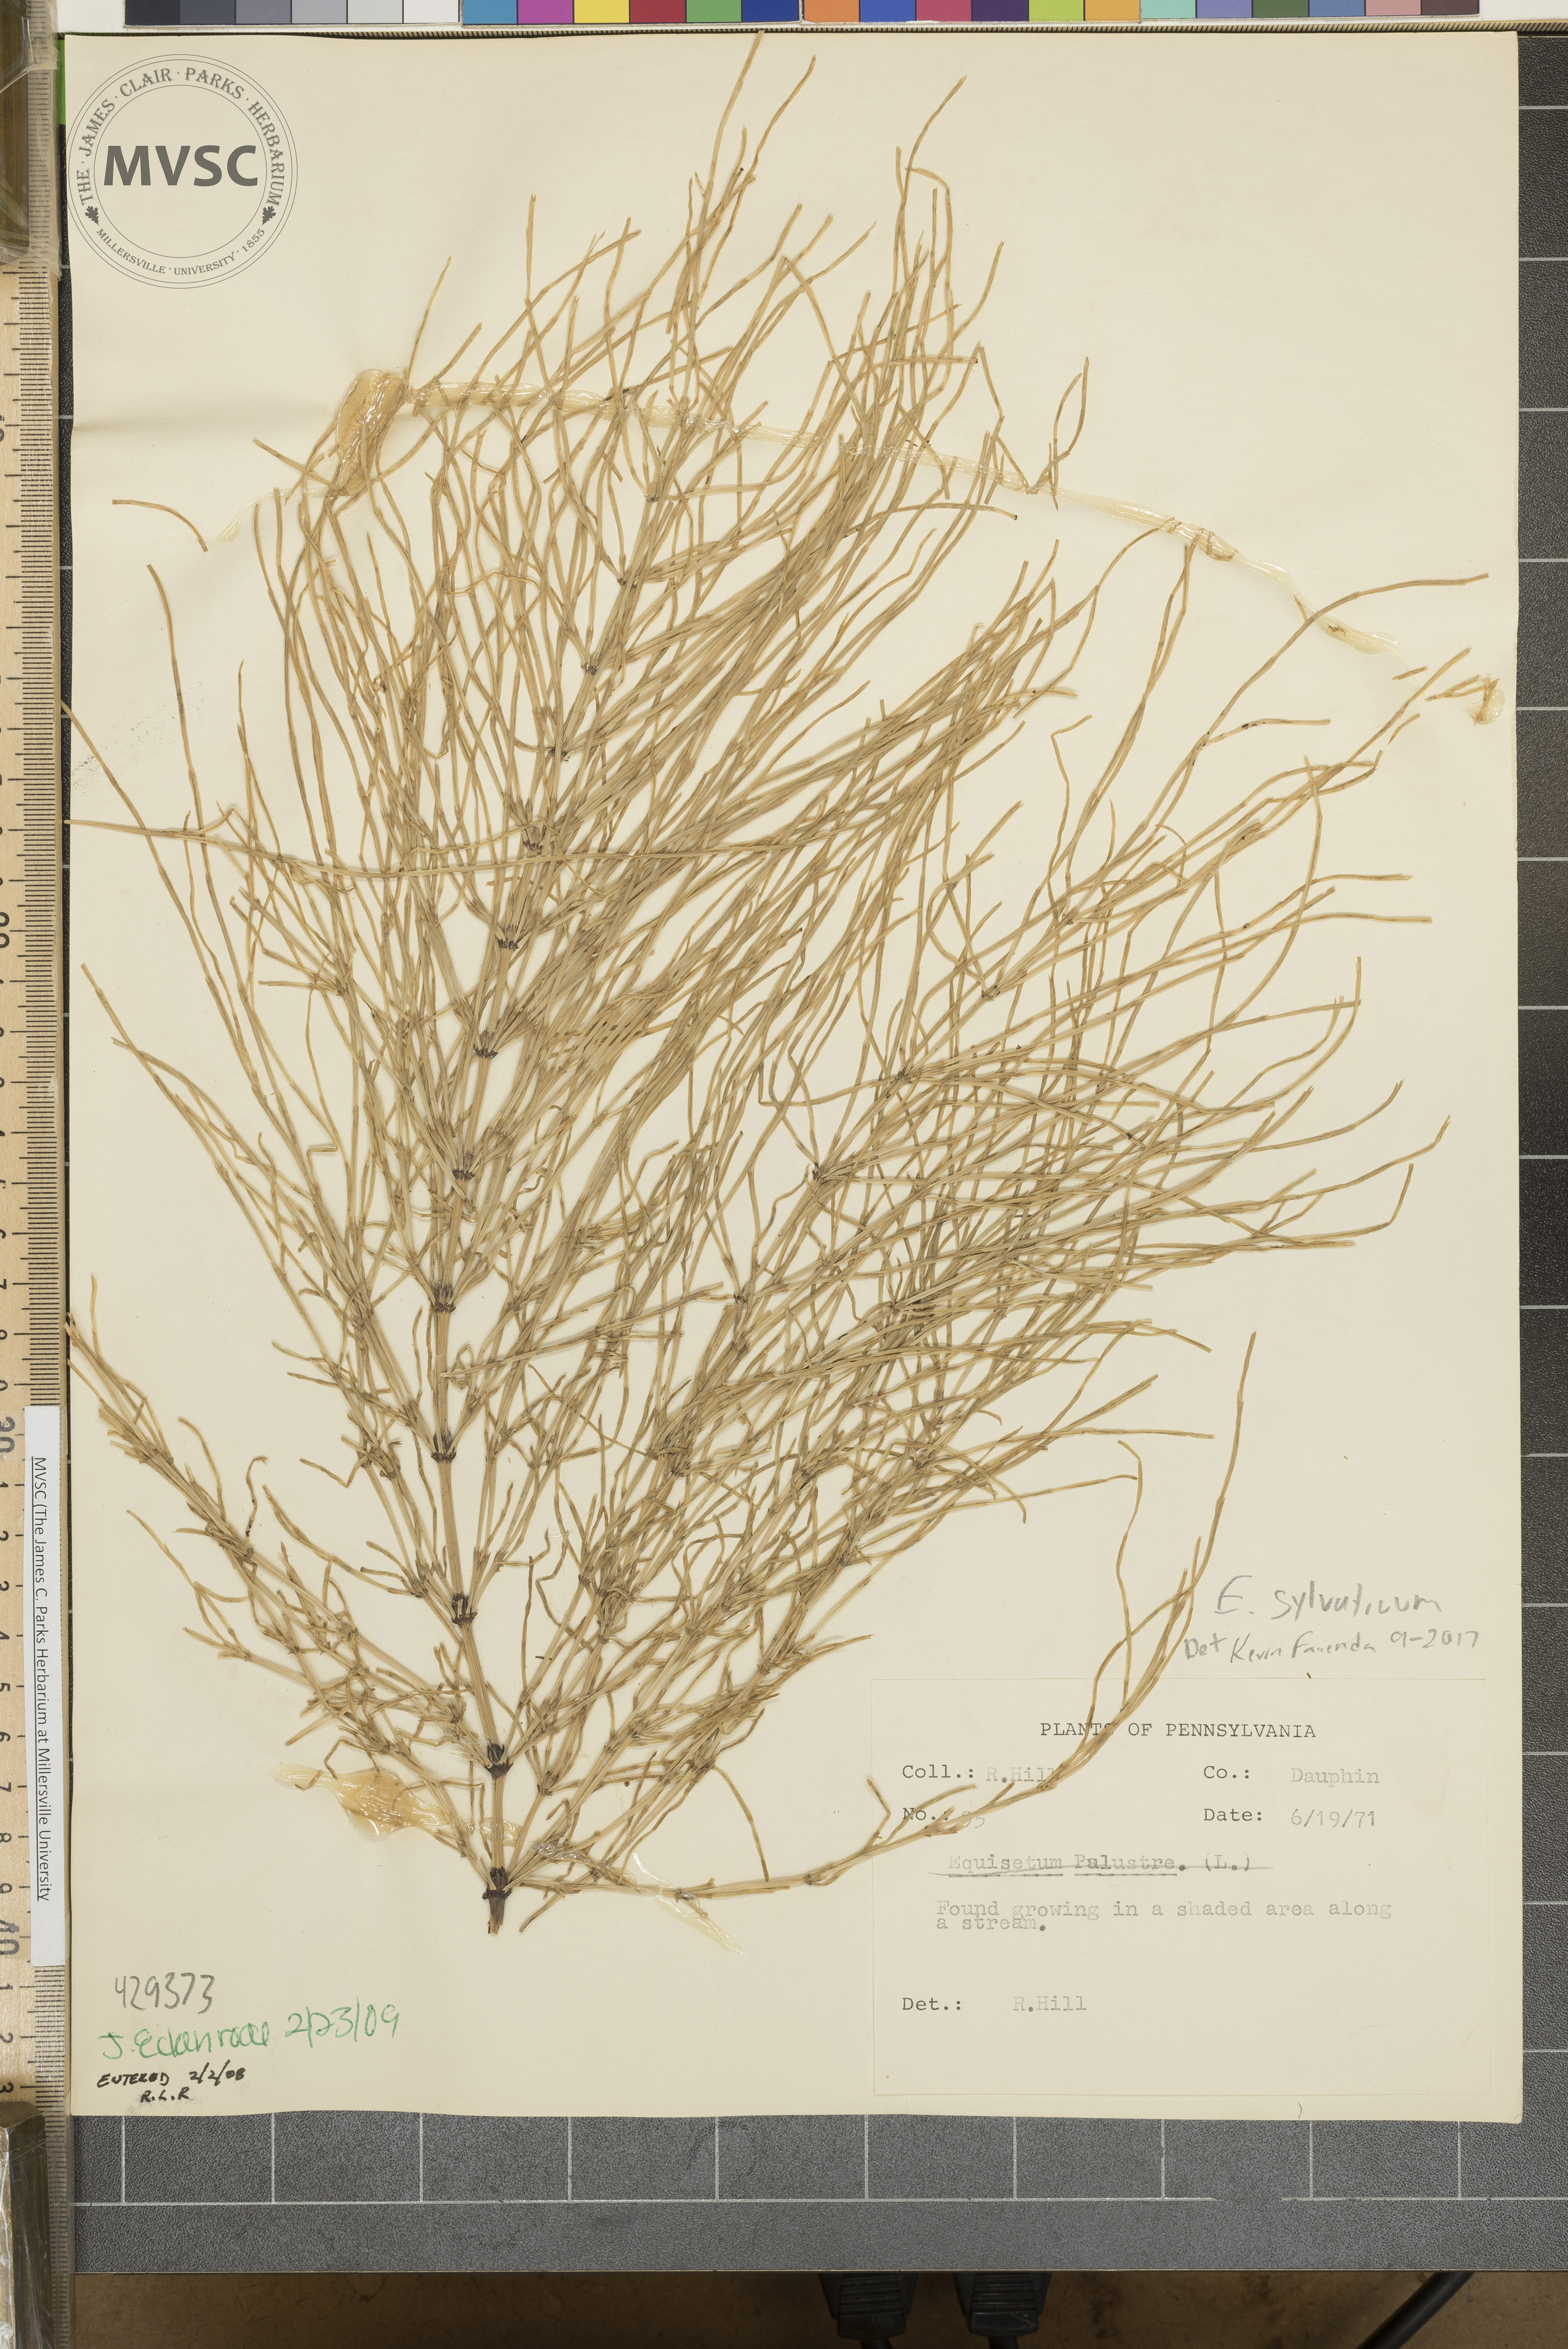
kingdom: Plantae
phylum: Tracheophyta
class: Polypodiopsida
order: Equisetales
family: Equisetaceae
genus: Equisetum
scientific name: Equisetum sylvaticum
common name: Wood horsetail
